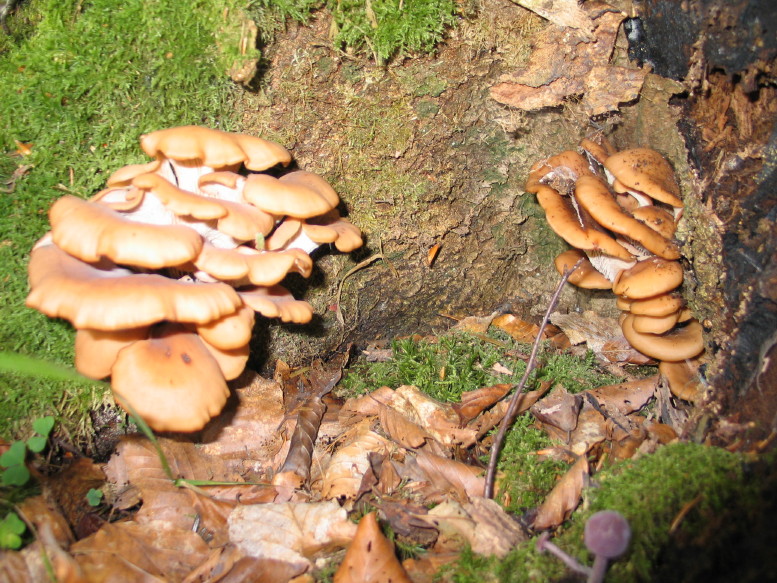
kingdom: Fungi
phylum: Basidiomycota
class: Agaricomycetes
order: Russulales
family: Auriscalpiaceae
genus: Lentinellus
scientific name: Lentinellus cochleatus
